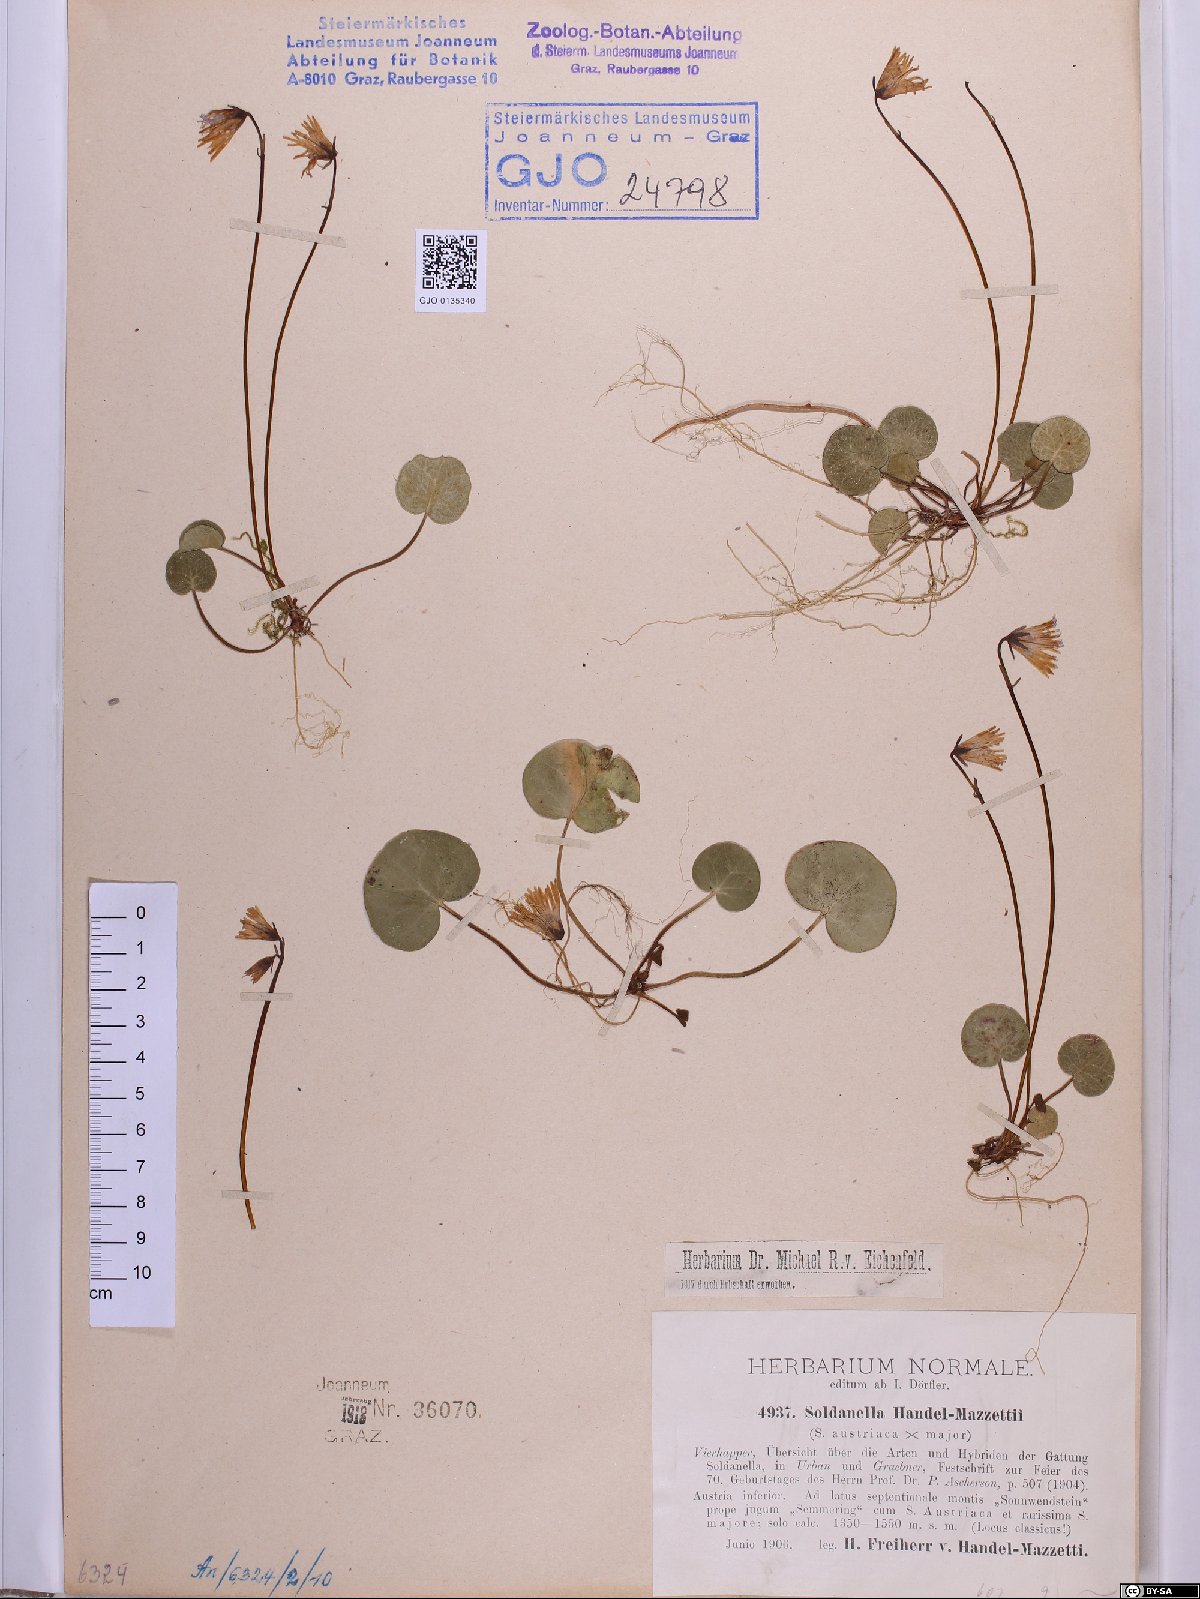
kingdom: Plantae
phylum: Tracheophyta
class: Magnoliopsida
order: Ericales
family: Primulaceae
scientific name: Primulaceae
